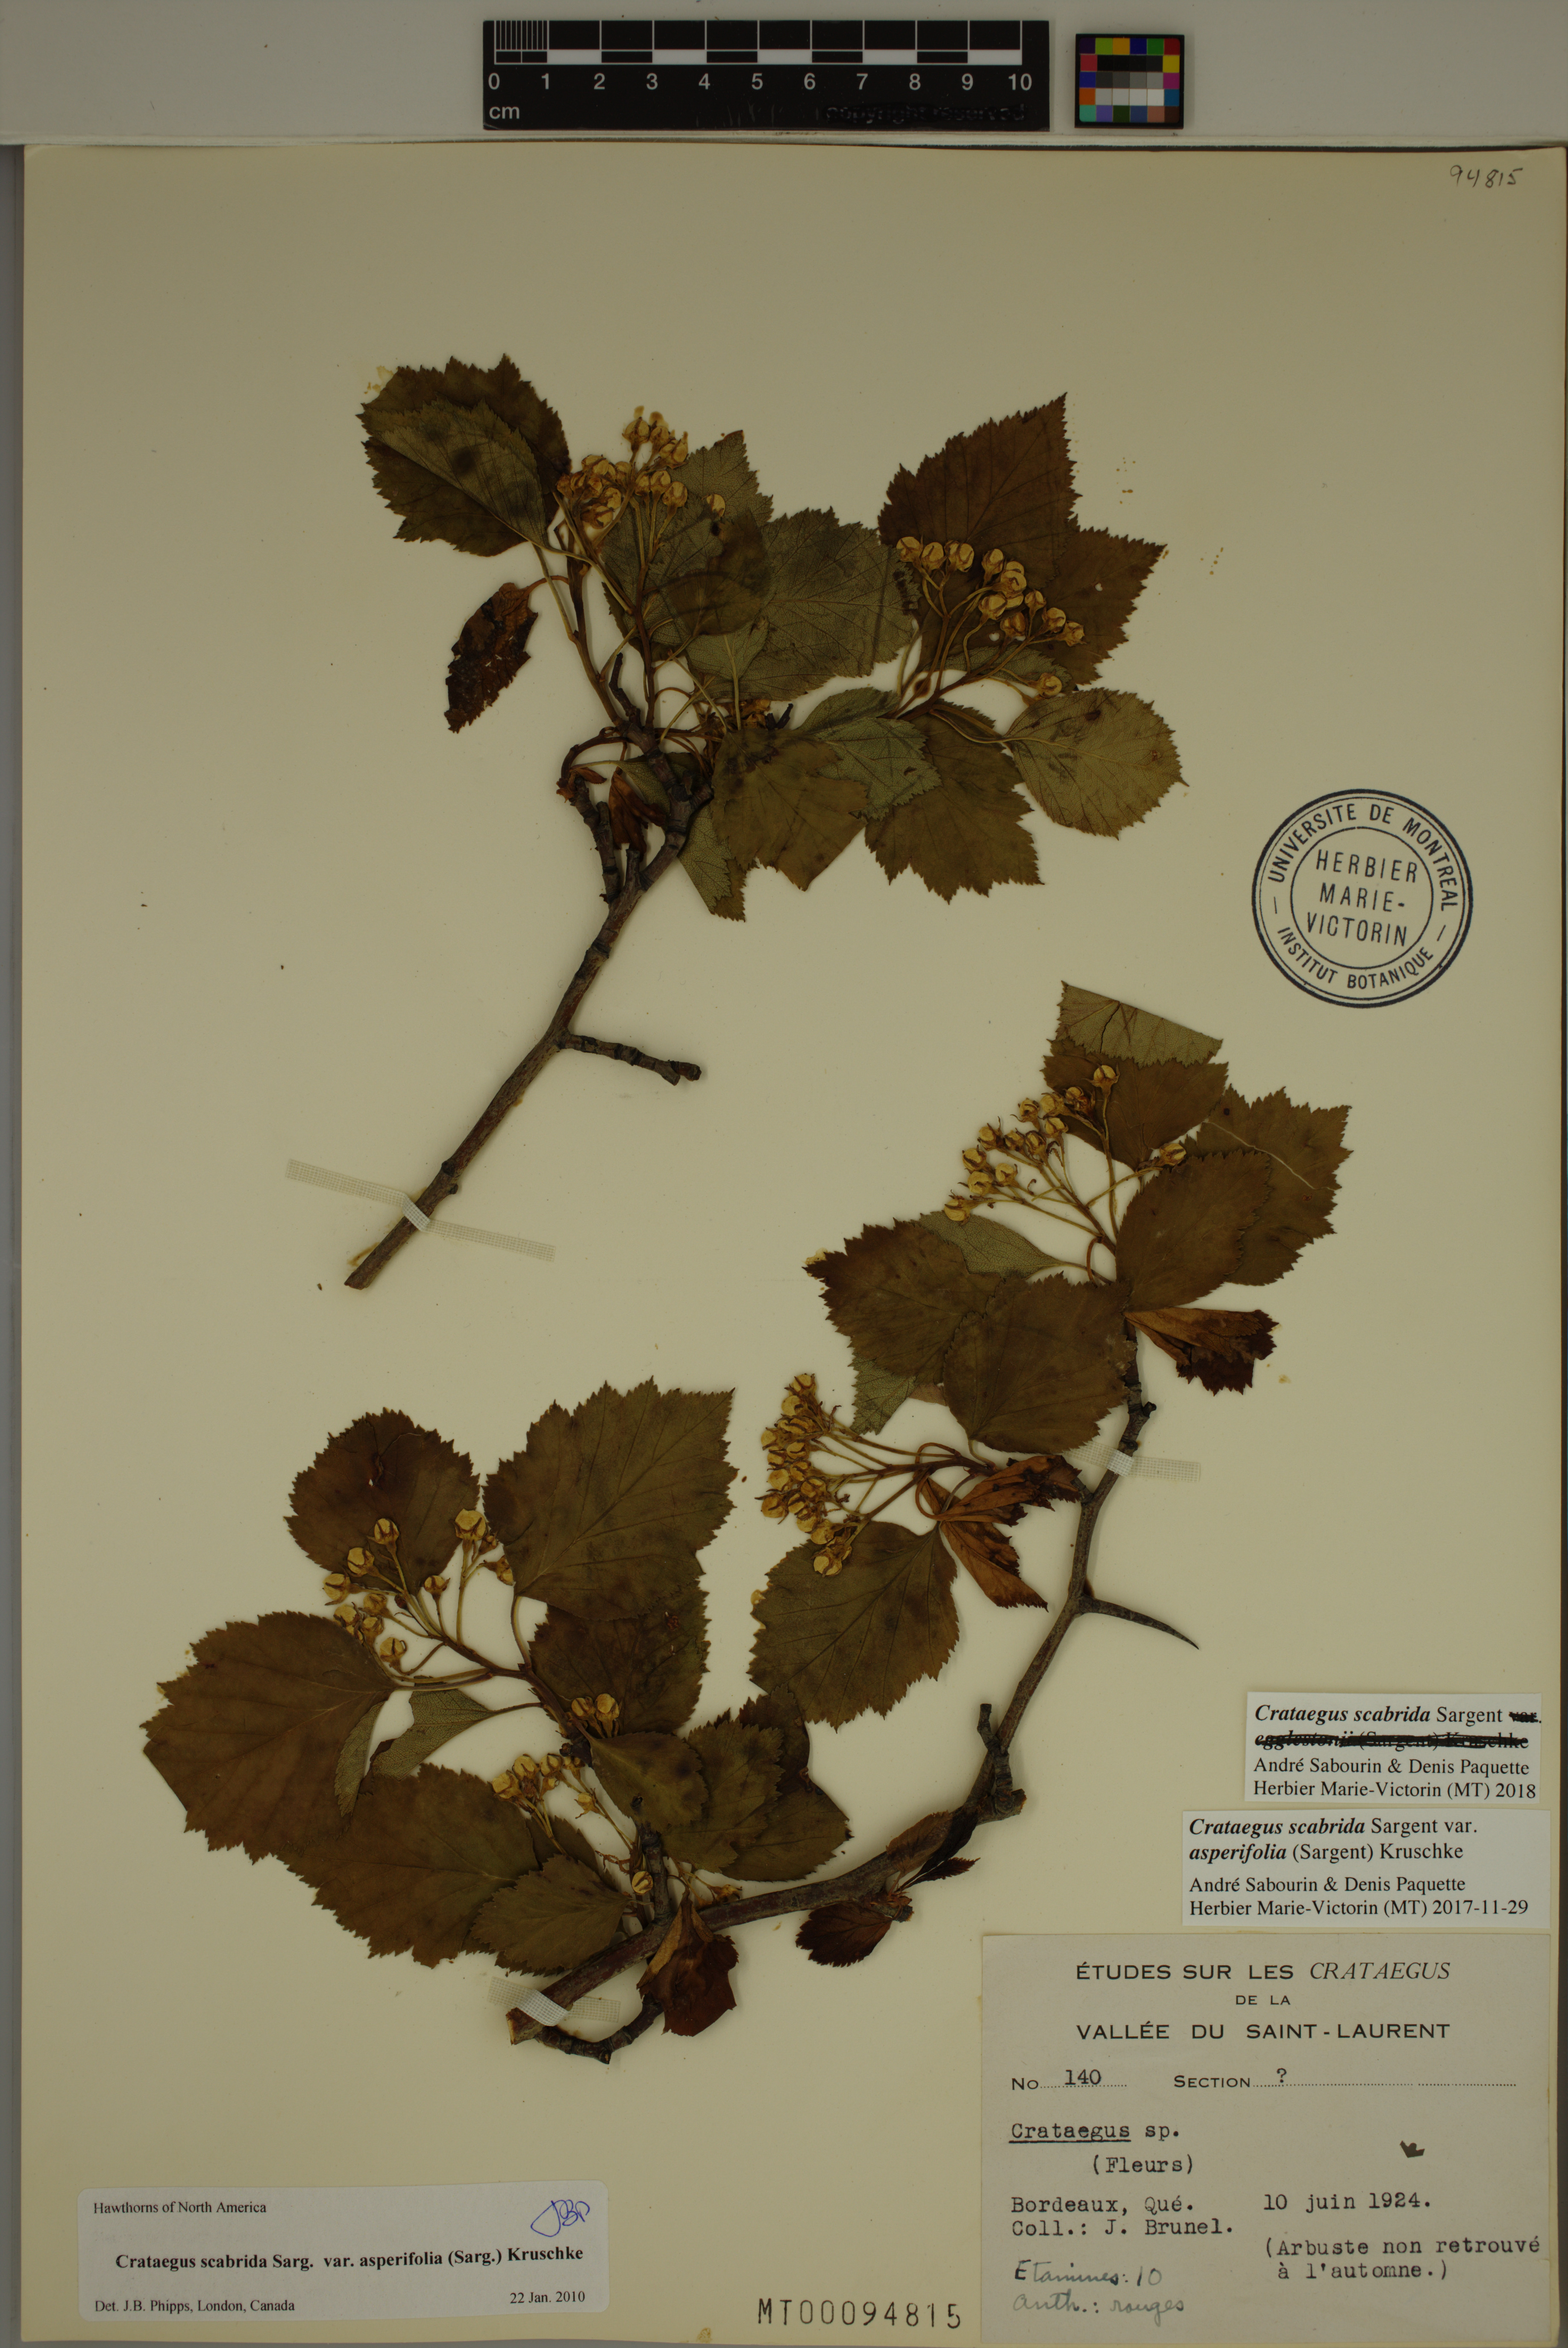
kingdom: Plantae
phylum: Tracheophyta
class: Magnoliopsida
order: Rosales
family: Rosaceae
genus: Crataegus
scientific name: Crataegus scabrida
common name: Rough hawthorn
